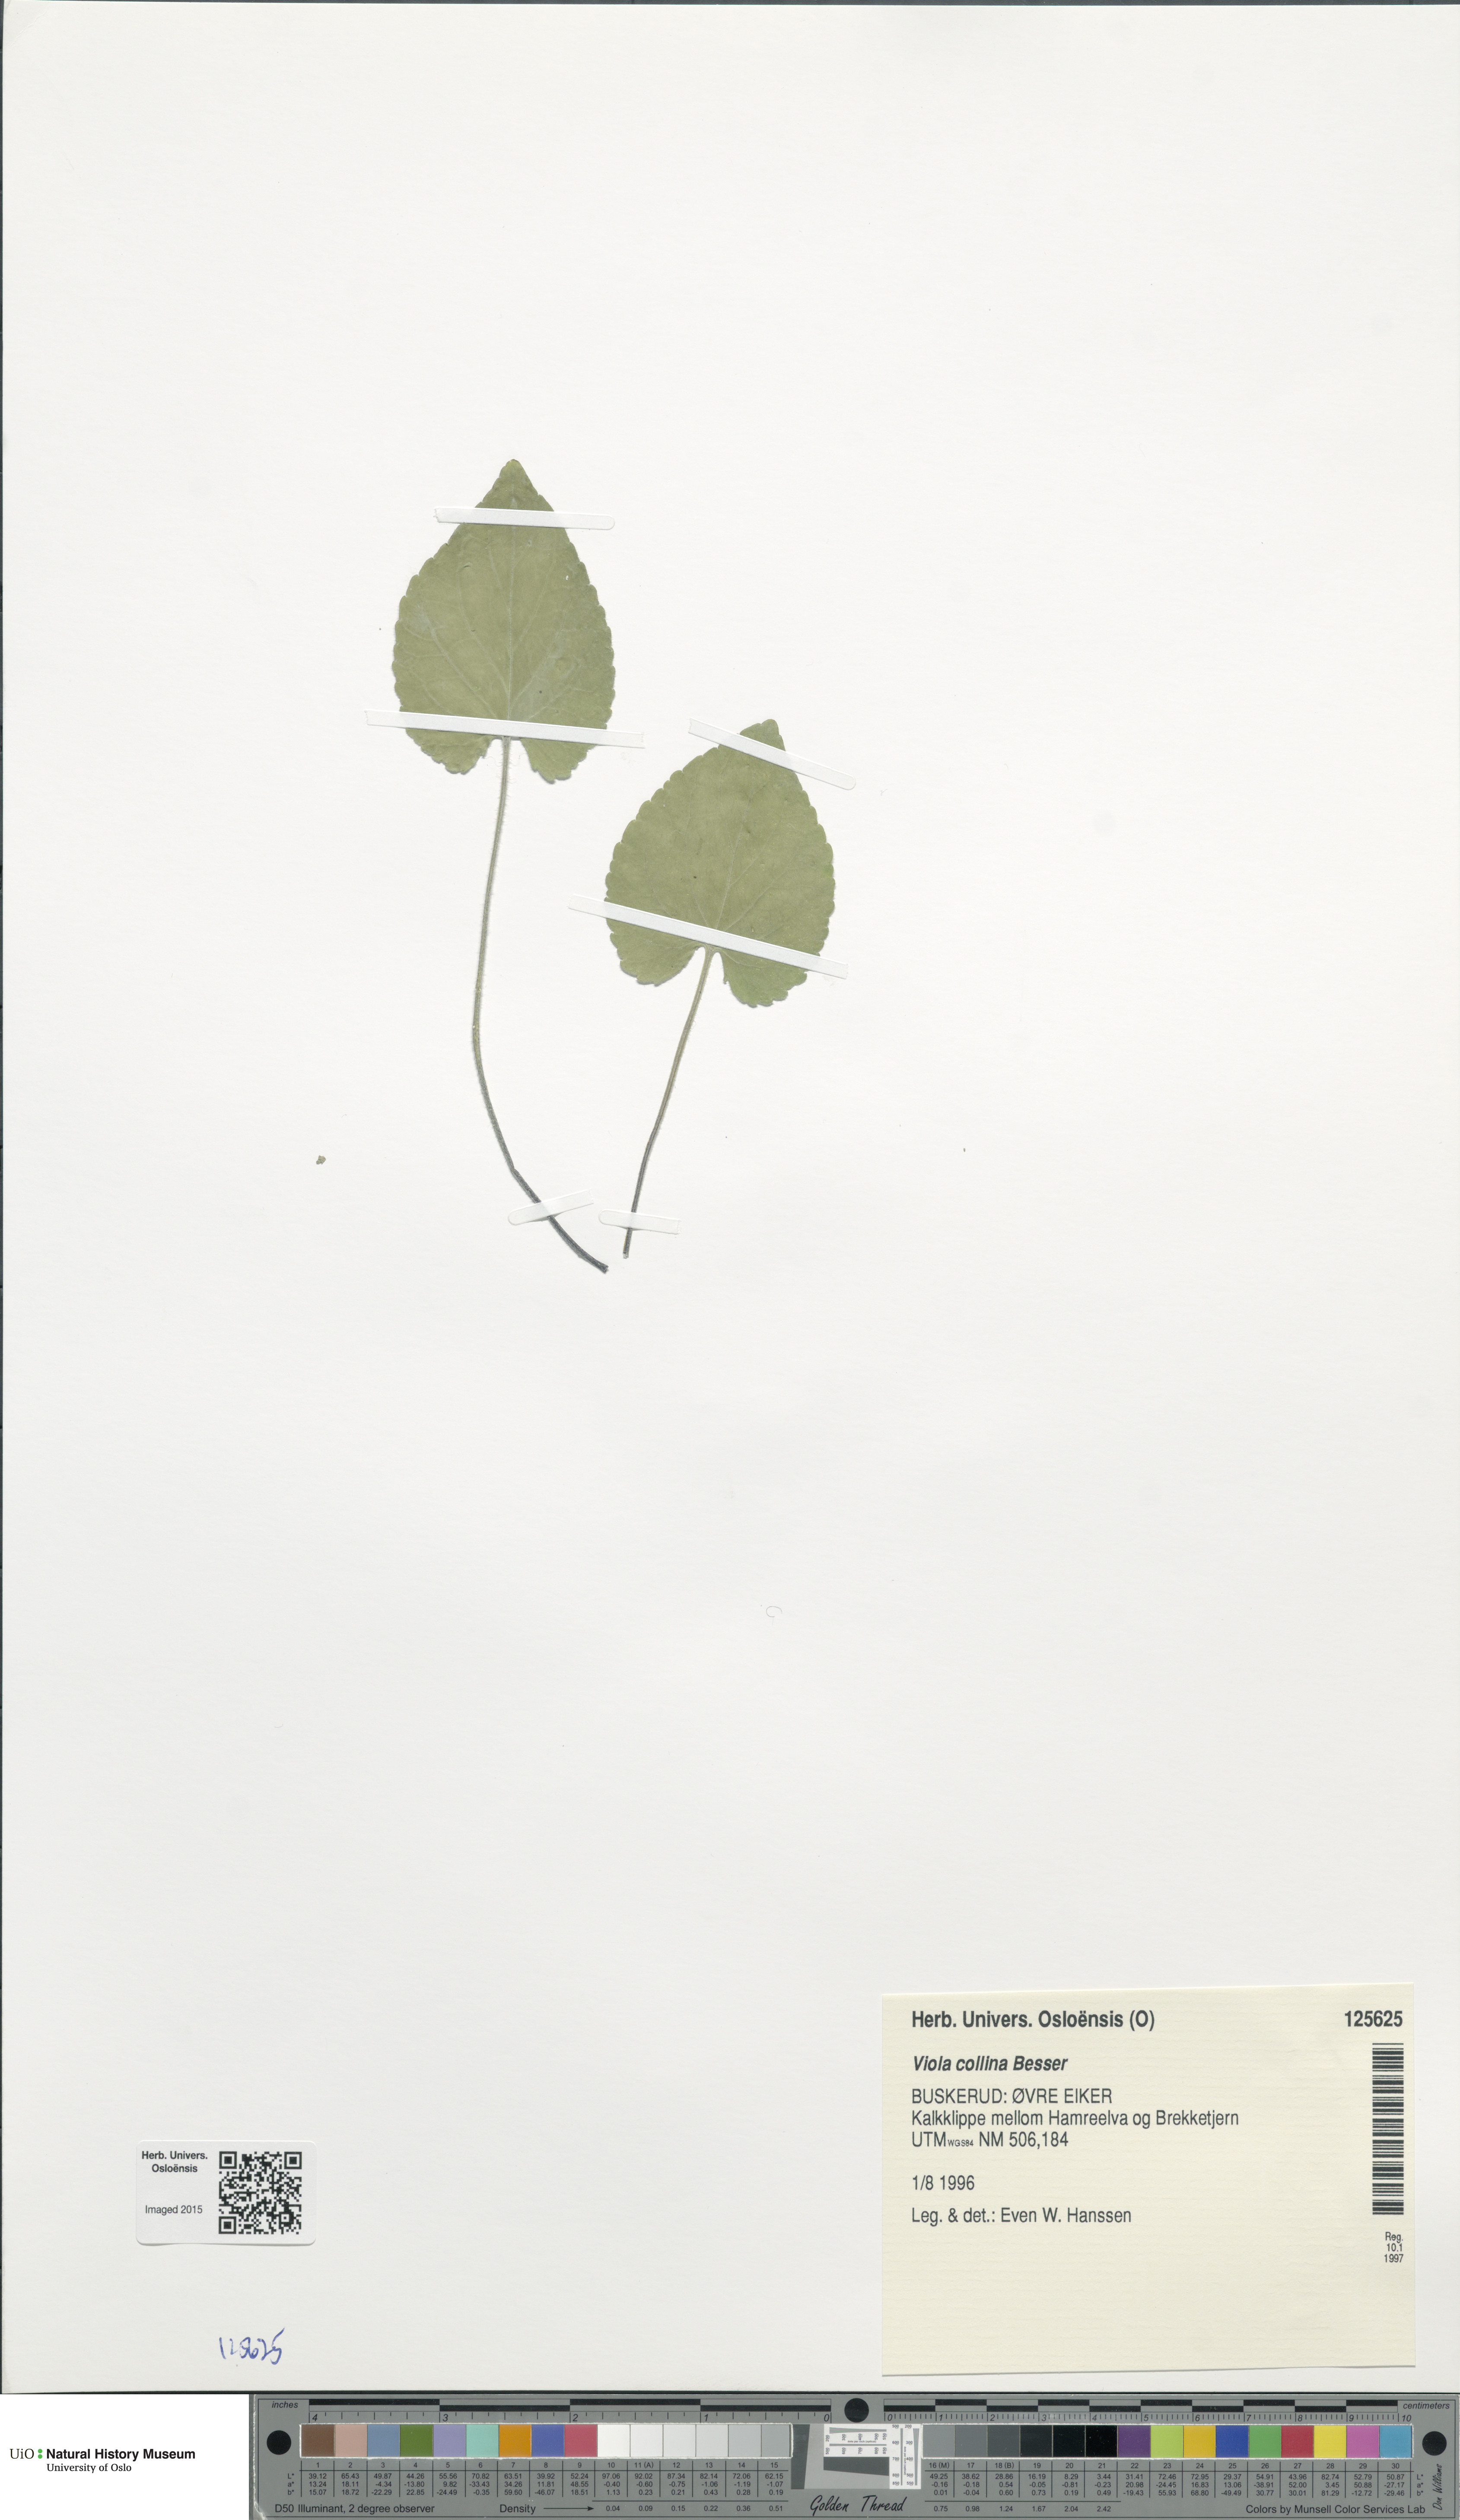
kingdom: Plantae
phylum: Tracheophyta
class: Magnoliopsida
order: Malpighiales
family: Violaceae
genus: Viola
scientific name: Viola collina
